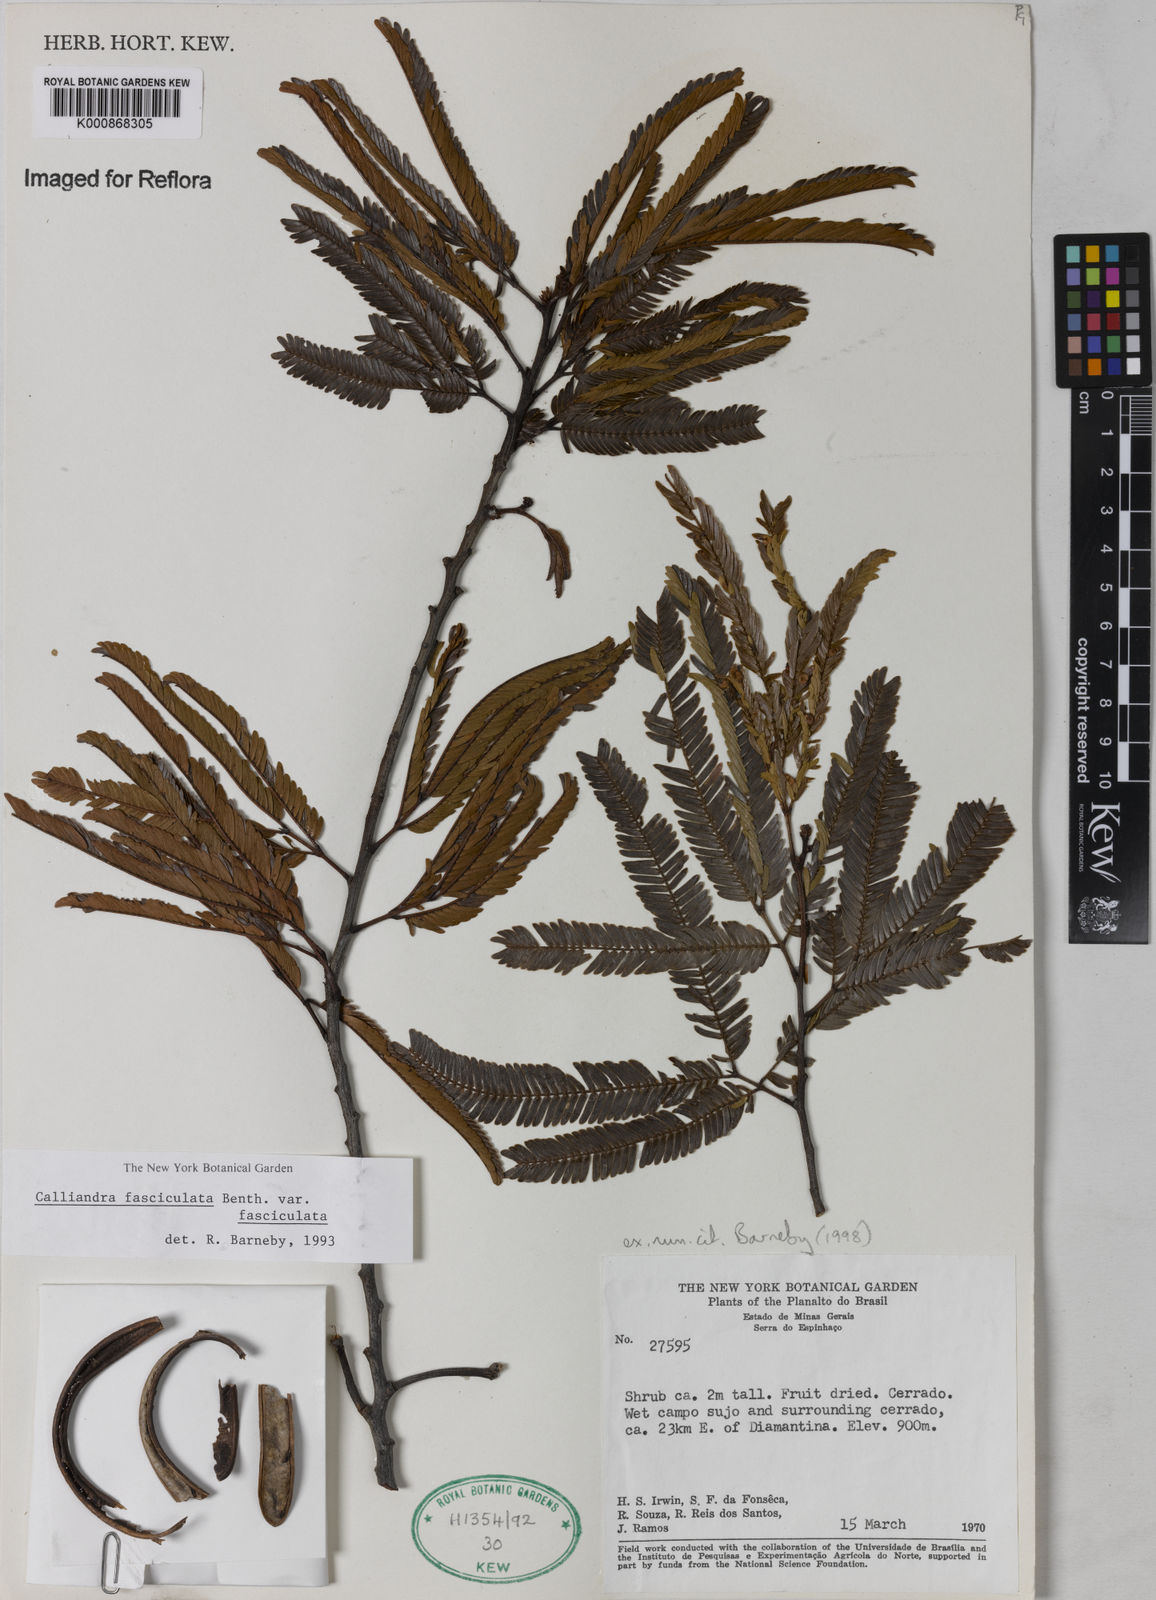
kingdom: Plantae
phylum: Tracheophyta
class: Magnoliopsida
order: Fabales
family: Fabaceae
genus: Calliandra
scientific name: Calliandra fasciculata
